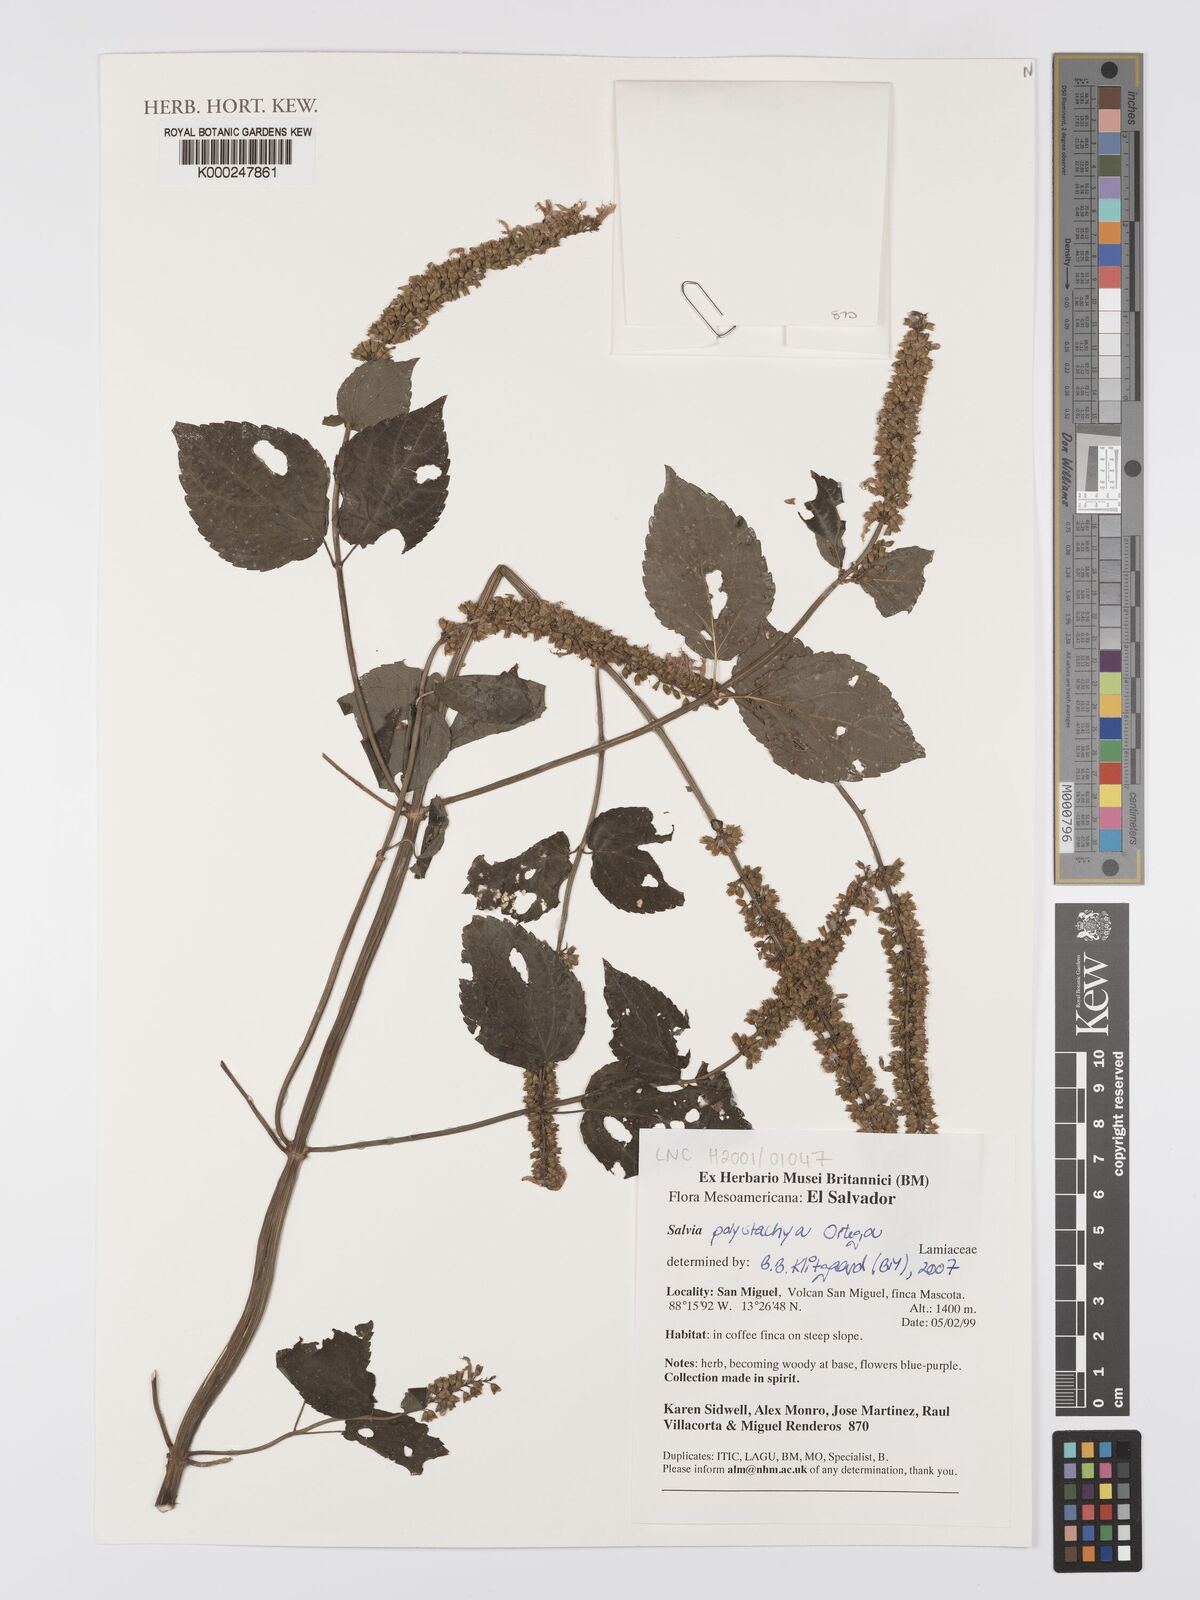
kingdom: Plantae
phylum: Tracheophyta
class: Magnoliopsida
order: Lamiales
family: Lamiaceae
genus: Salvia
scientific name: Salvia
